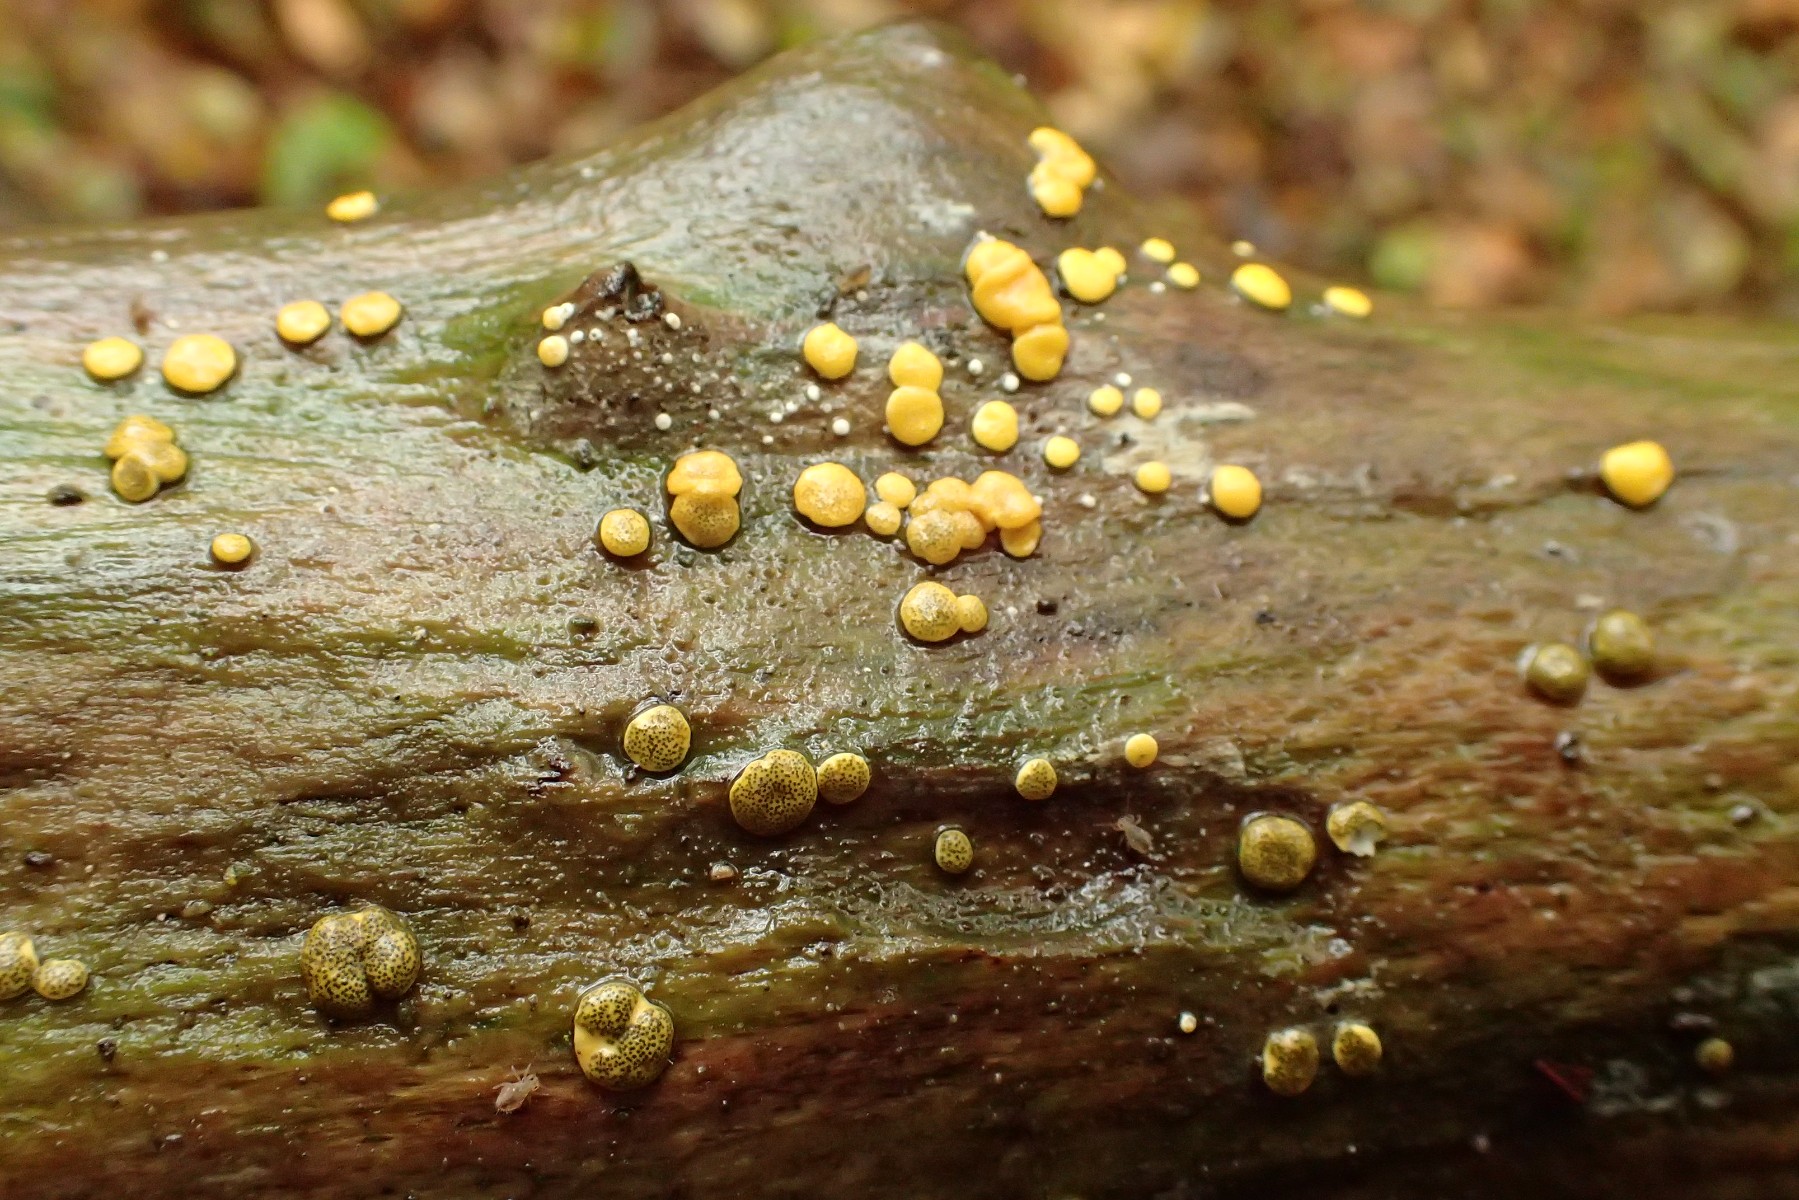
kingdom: Fungi
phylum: Ascomycota
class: Sordariomycetes
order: Hypocreales
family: Hypocreaceae
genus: Trichoderma
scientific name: Trichoderma aureoviride
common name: æggegul kødkerne
